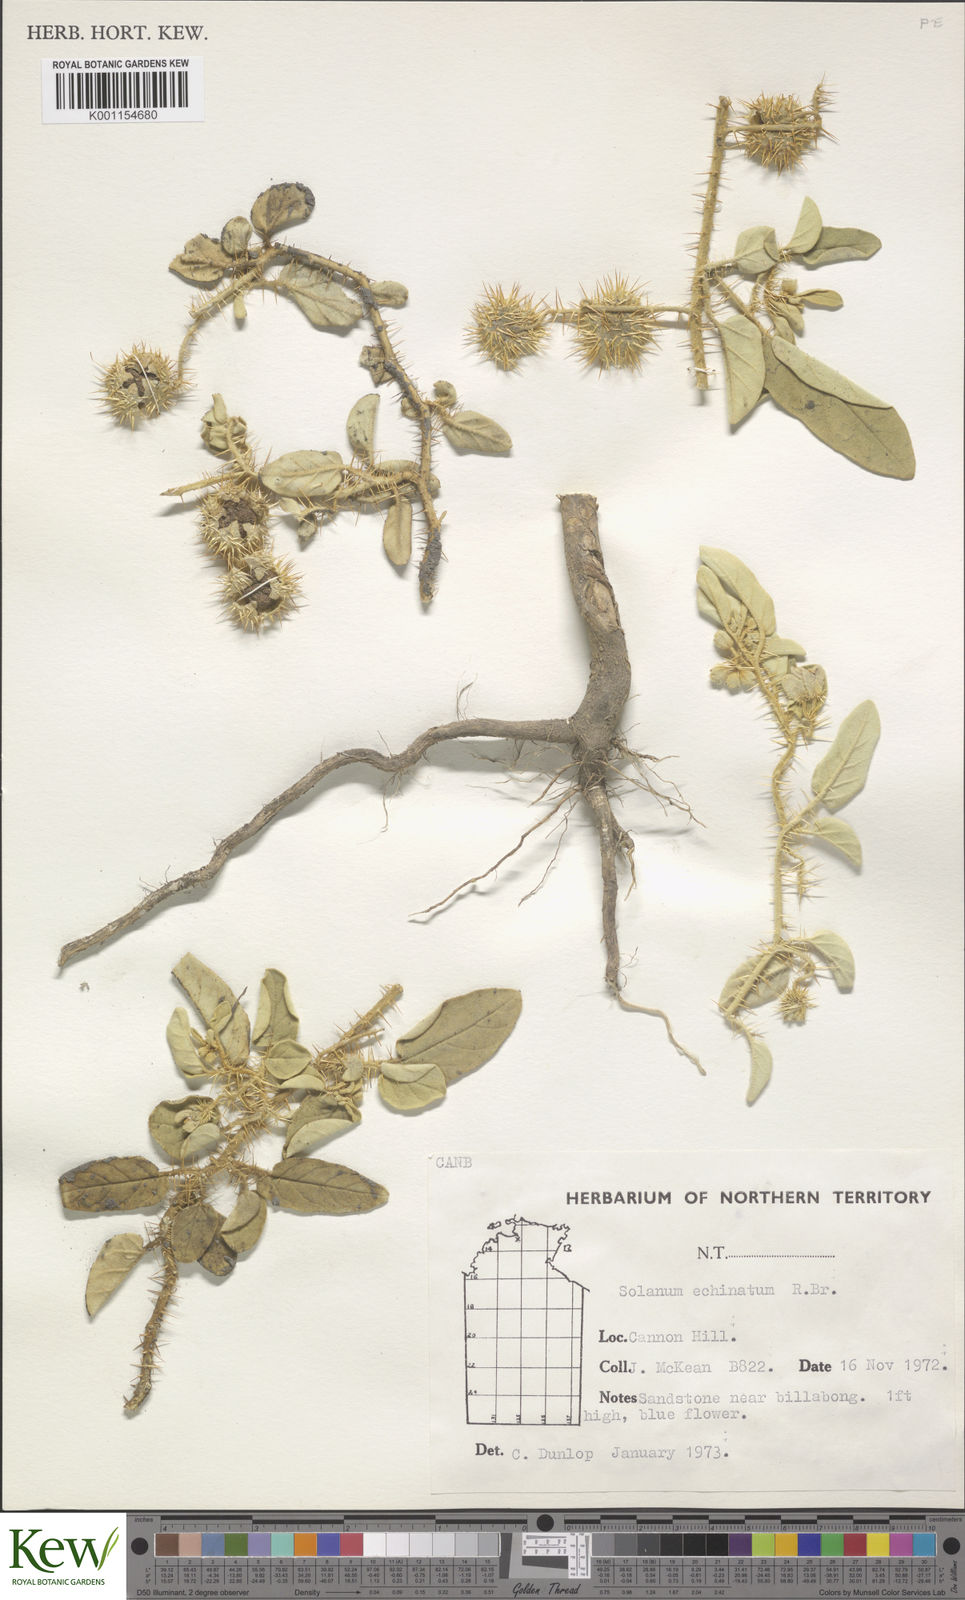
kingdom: Plantae
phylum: Tracheophyta
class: Magnoliopsida
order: Solanales
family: Solanaceae
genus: Solanum
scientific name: Solanum echinatum
